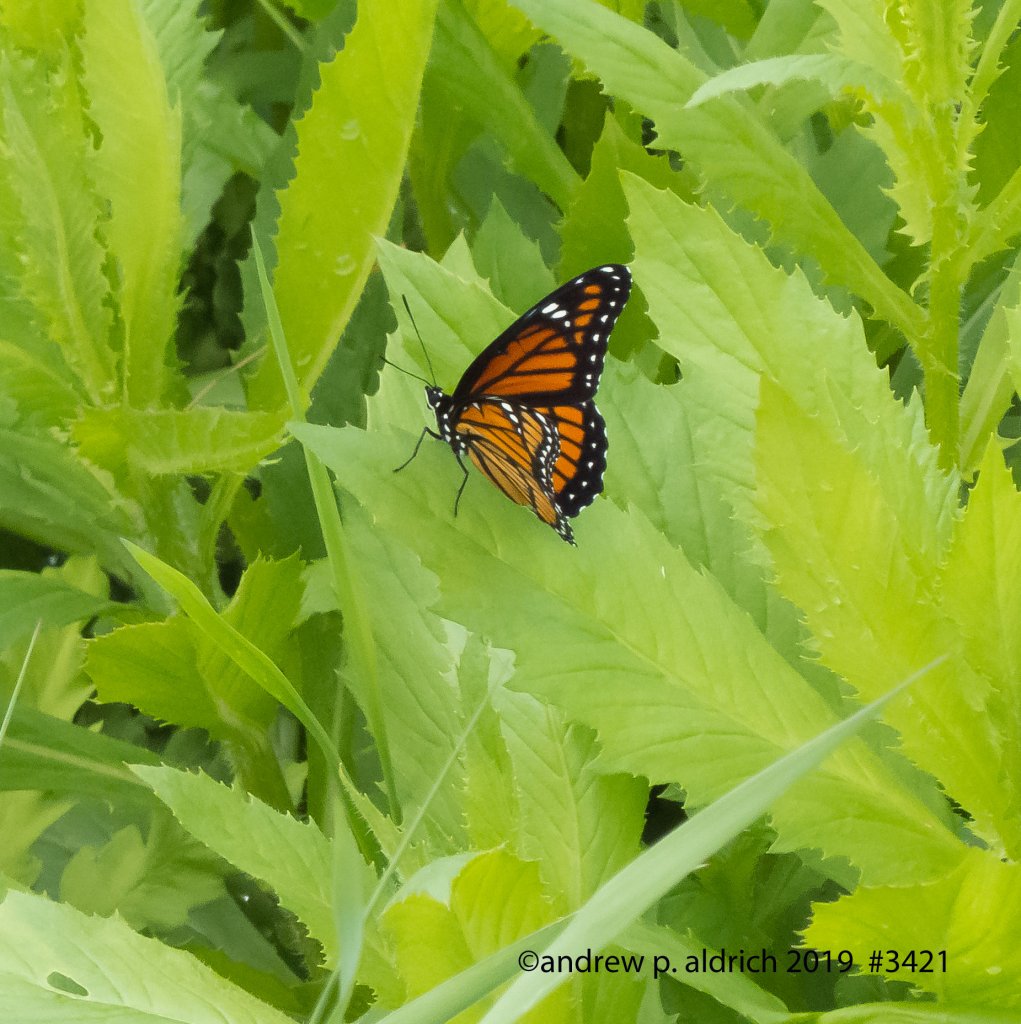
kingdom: Animalia
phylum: Arthropoda
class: Insecta
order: Lepidoptera
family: Nymphalidae
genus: Limenitis
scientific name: Limenitis archippus
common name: Viceroy
